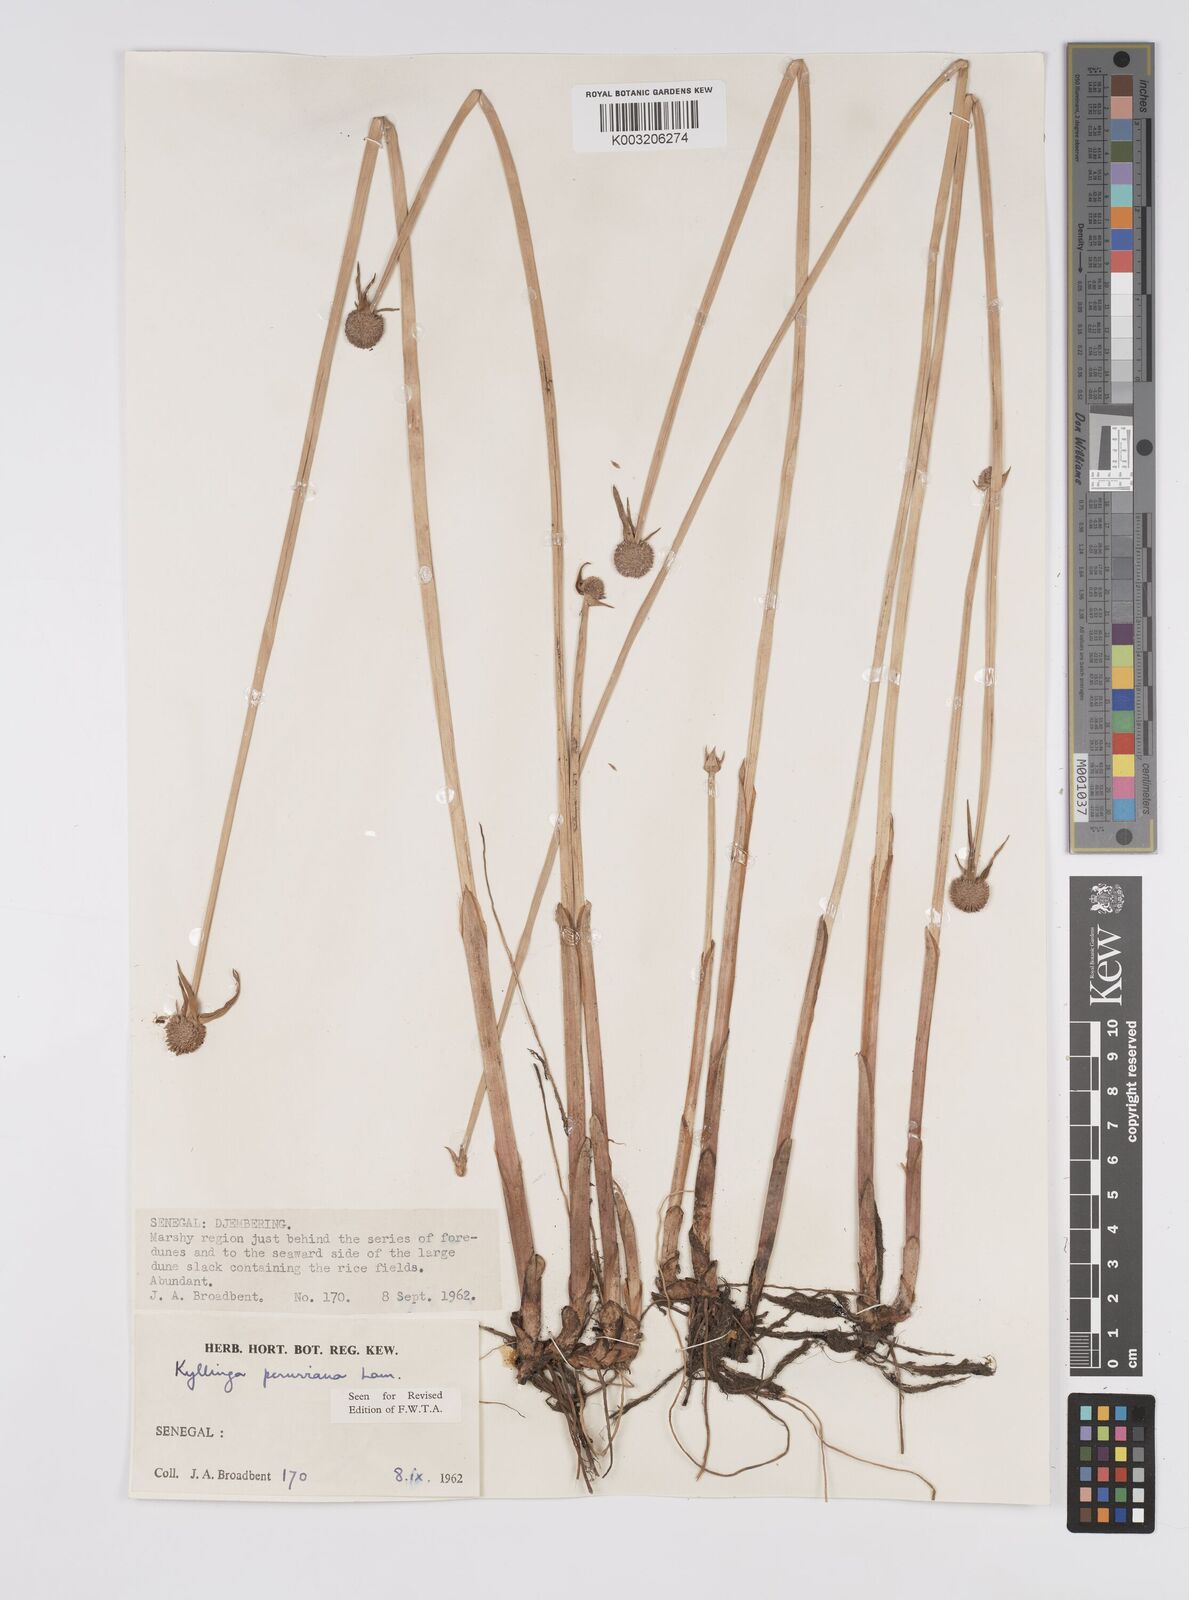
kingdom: Plantae
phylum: Tracheophyta
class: Liliopsida
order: Poales
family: Cyperaceae
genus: Cyperus
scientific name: Cyperus obtusatus
